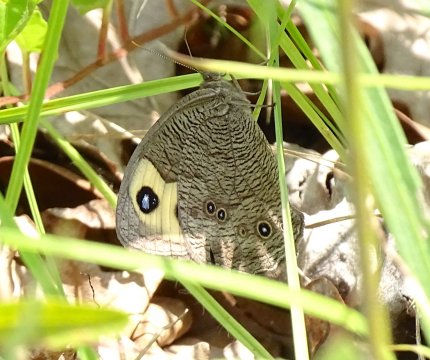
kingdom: Animalia
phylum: Arthropoda
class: Insecta
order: Lepidoptera
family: Nymphalidae
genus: Cercyonis
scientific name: Cercyonis pegala
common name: Common Wood-Nymph
